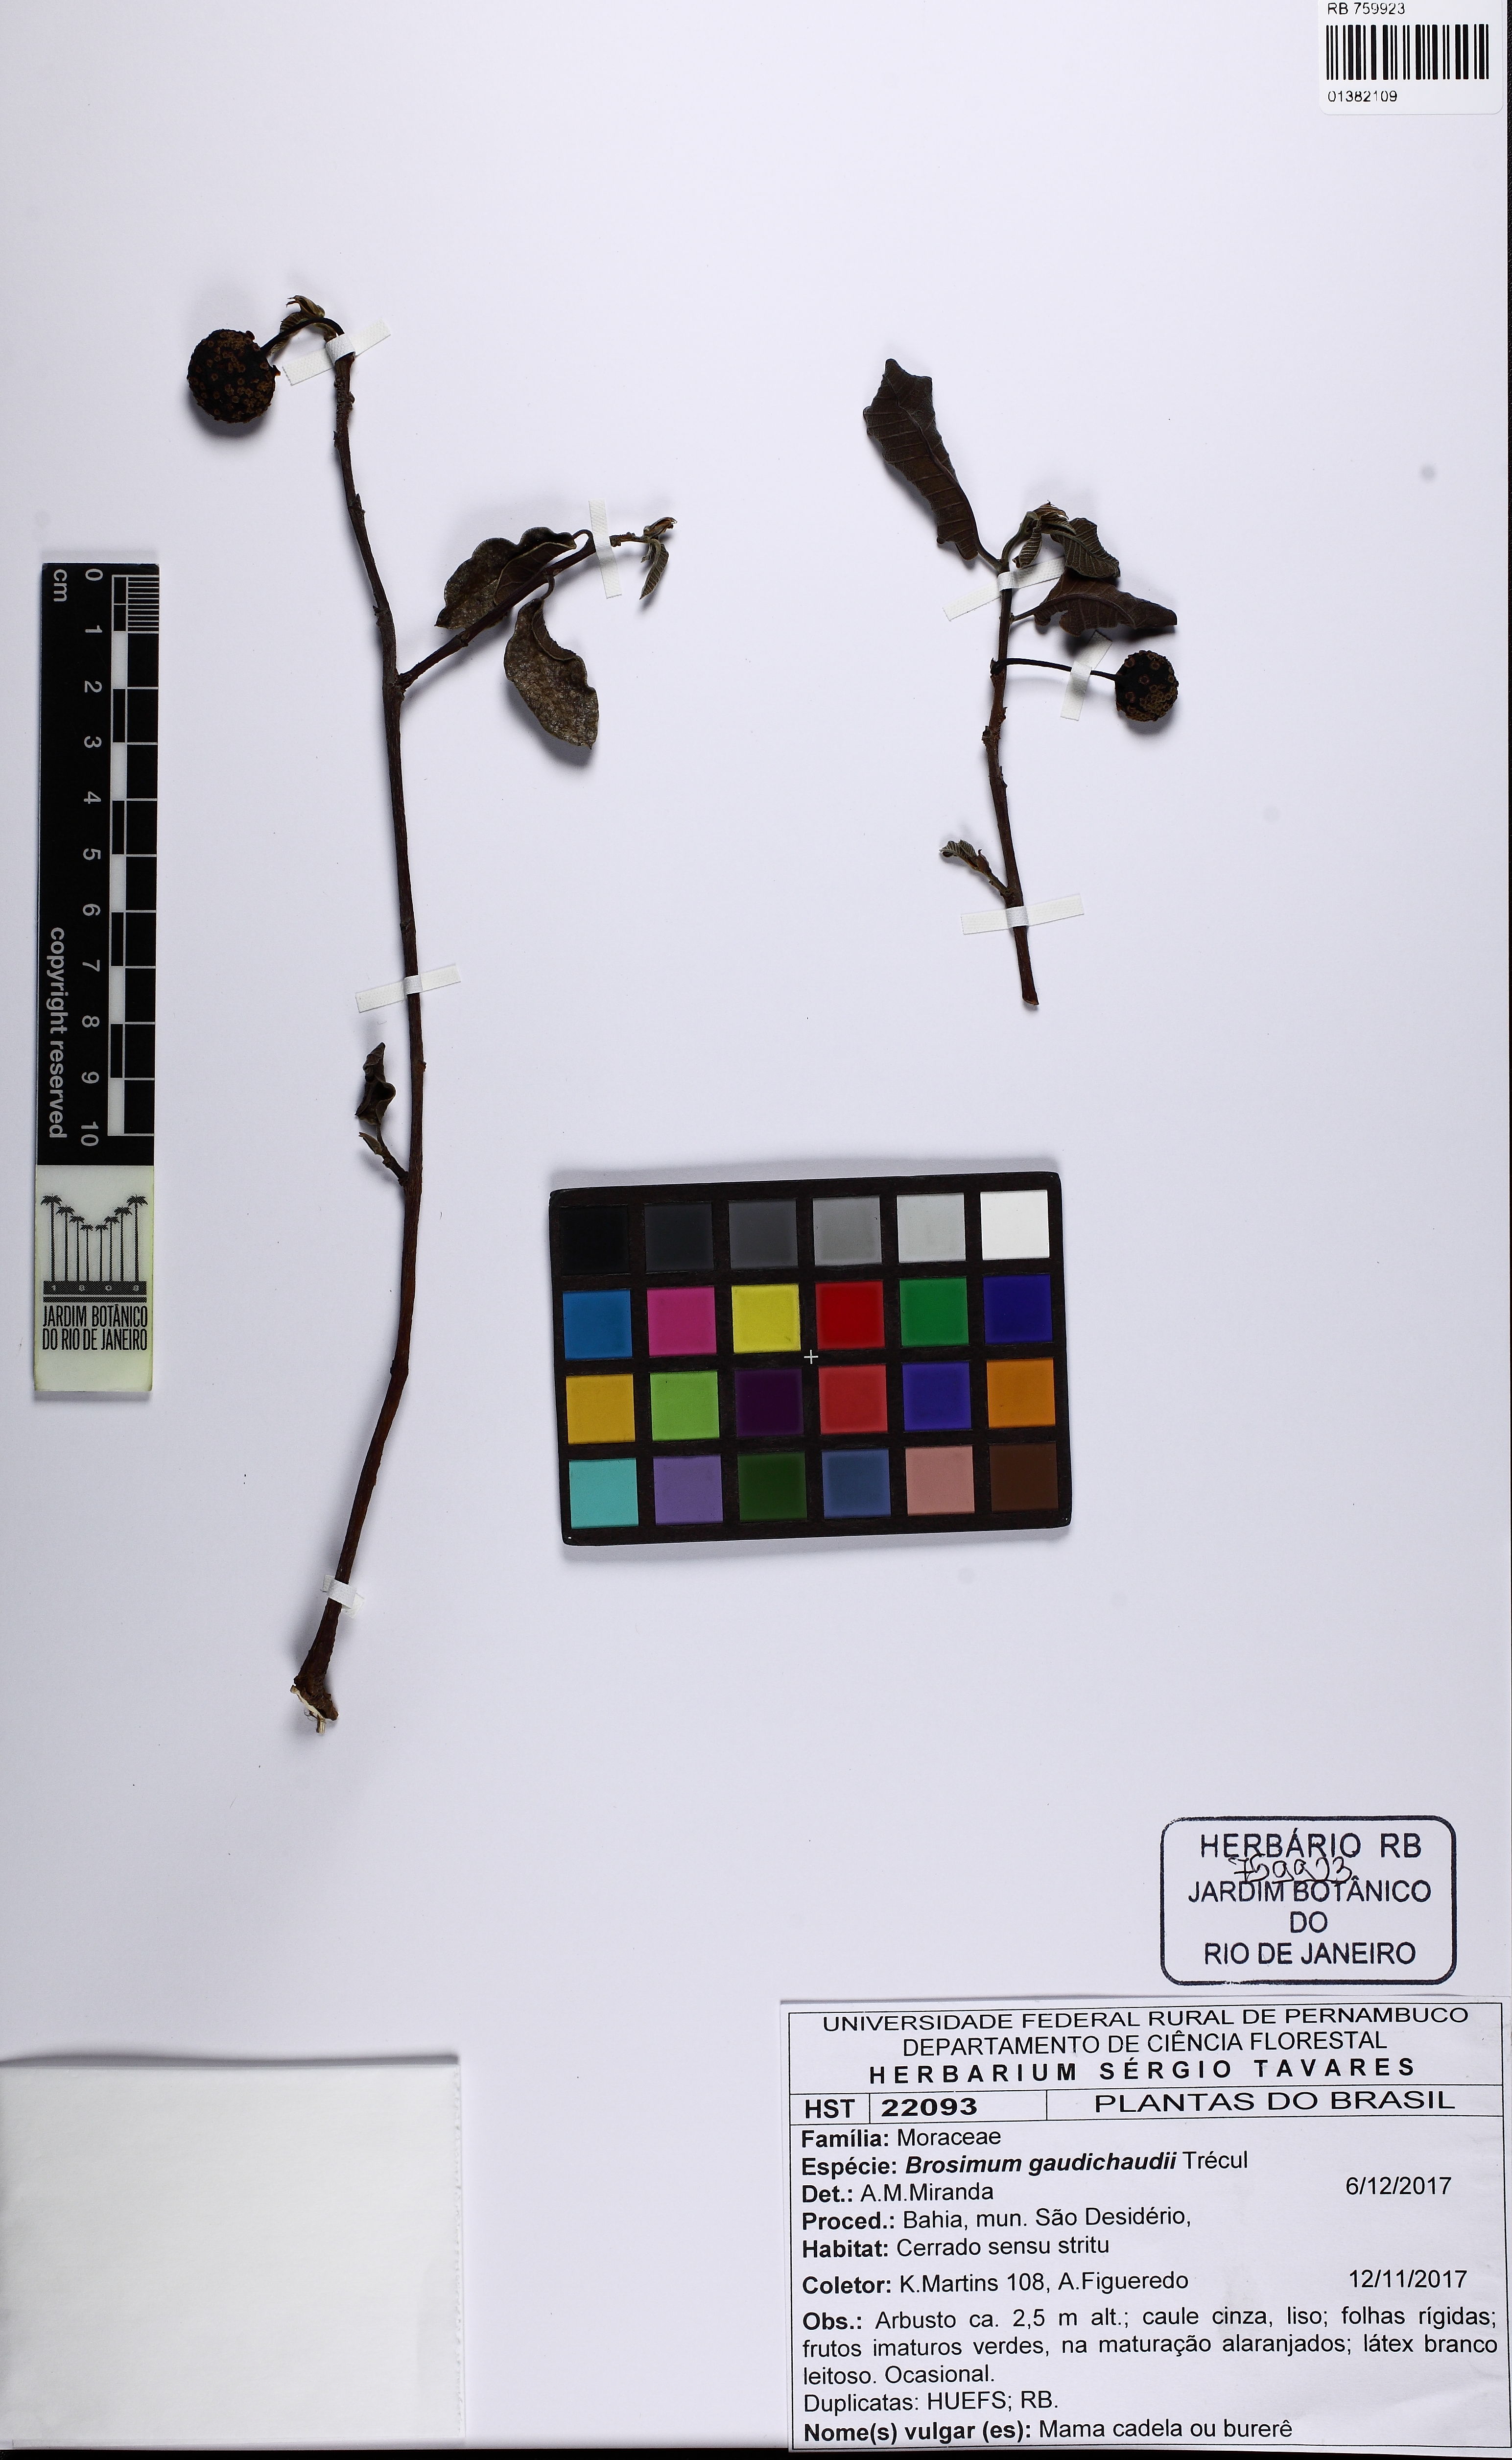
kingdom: Plantae
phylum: Tracheophyta
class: Magnoliopsida
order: Rosales
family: Moraceae
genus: Brosimum
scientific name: Brosimum gaudichaudii
